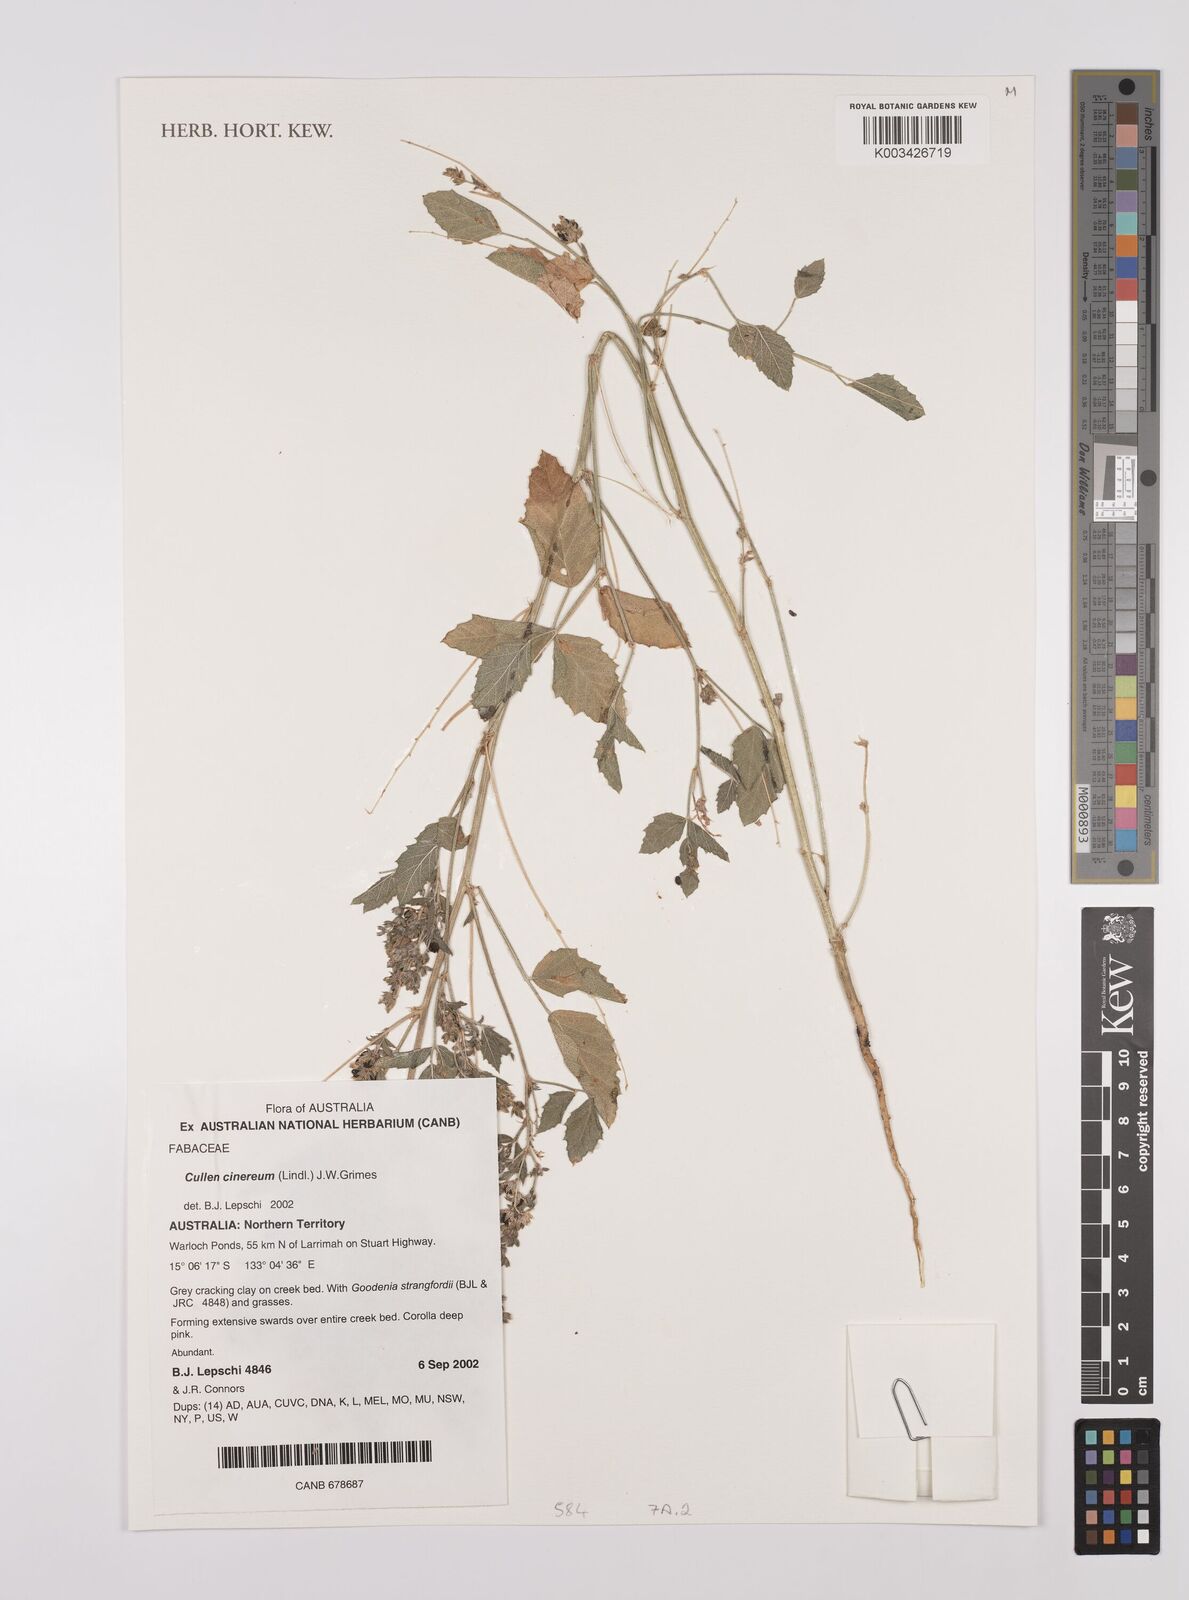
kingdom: Plantae
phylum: Tracheophyta
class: Magnoliopsida
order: Fabales
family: Fabaceae
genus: Cullen
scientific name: Cullen cinereum
